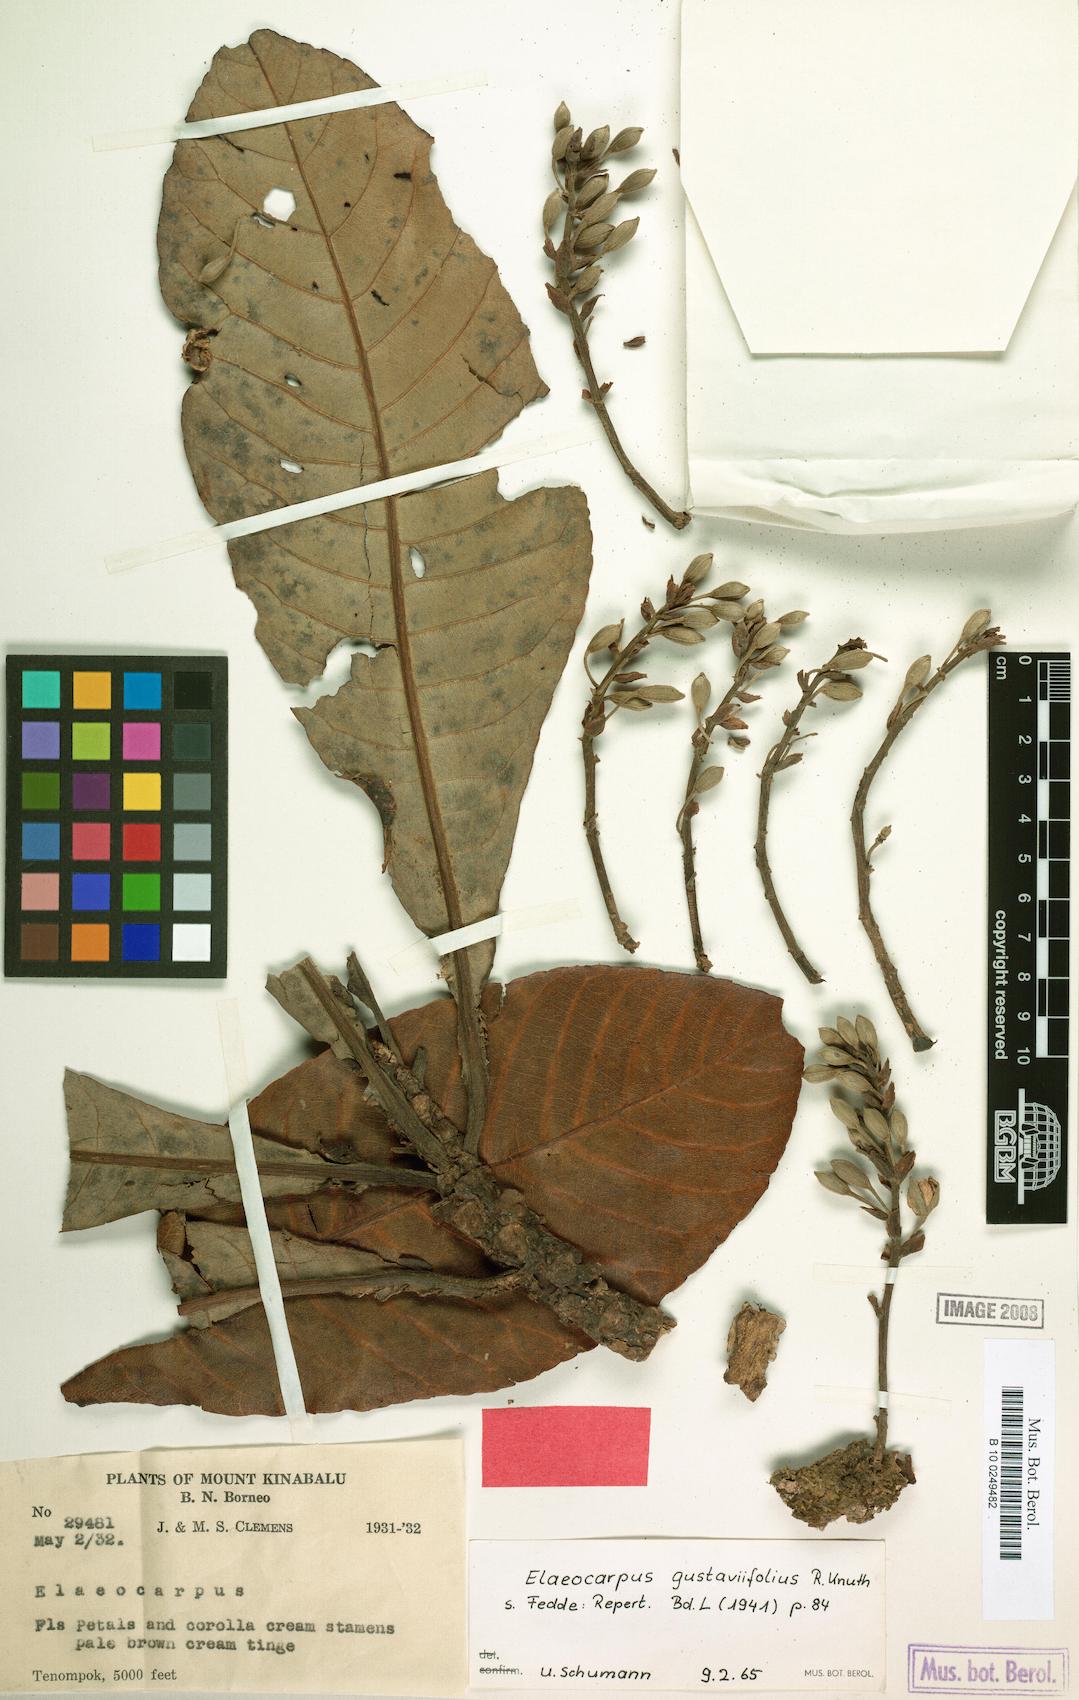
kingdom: Plantae
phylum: Tracheophyta
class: Magnoliopsida
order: Oxalidales
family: Elaeocarpaceae
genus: Elaeocarpus
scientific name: Elaeocarpus gustaviifolius
